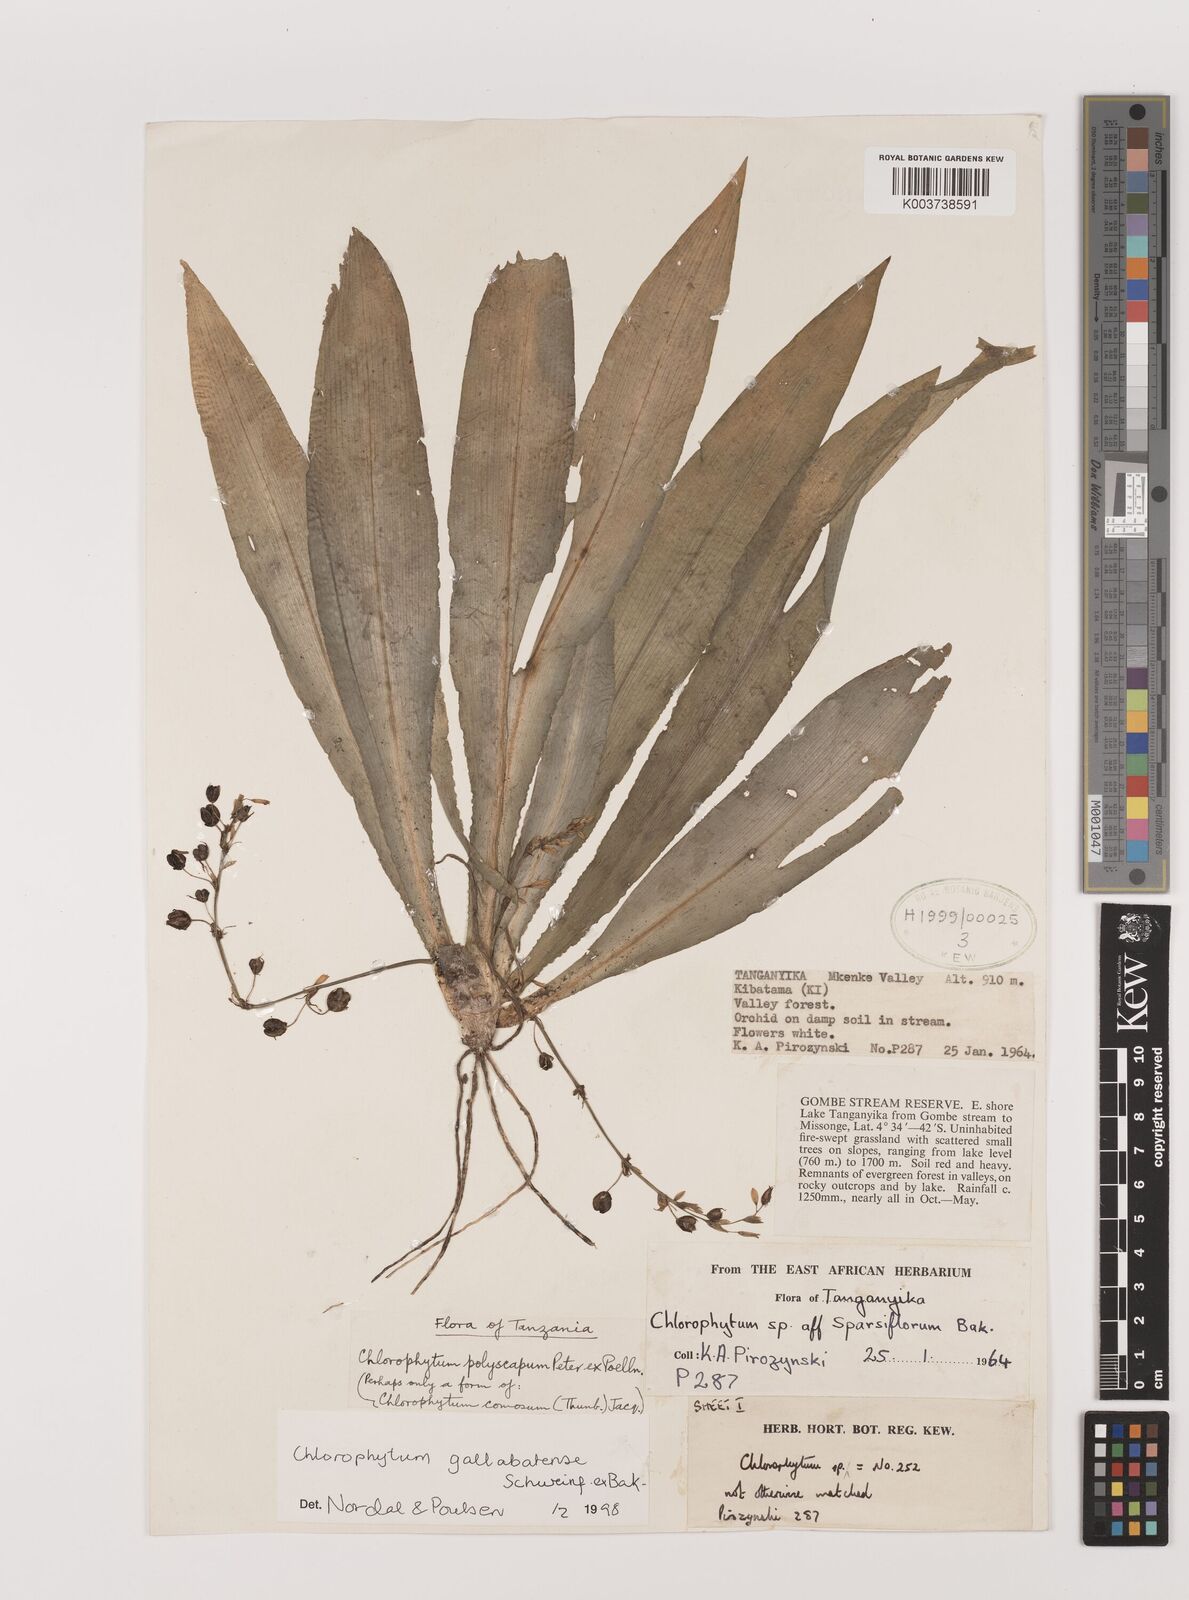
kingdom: Plantae
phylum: Tracheophyta
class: Liliopsida
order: Asparagales
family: Asparagaceae
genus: Chlorophytum
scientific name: Chlorophytum gallabatense
